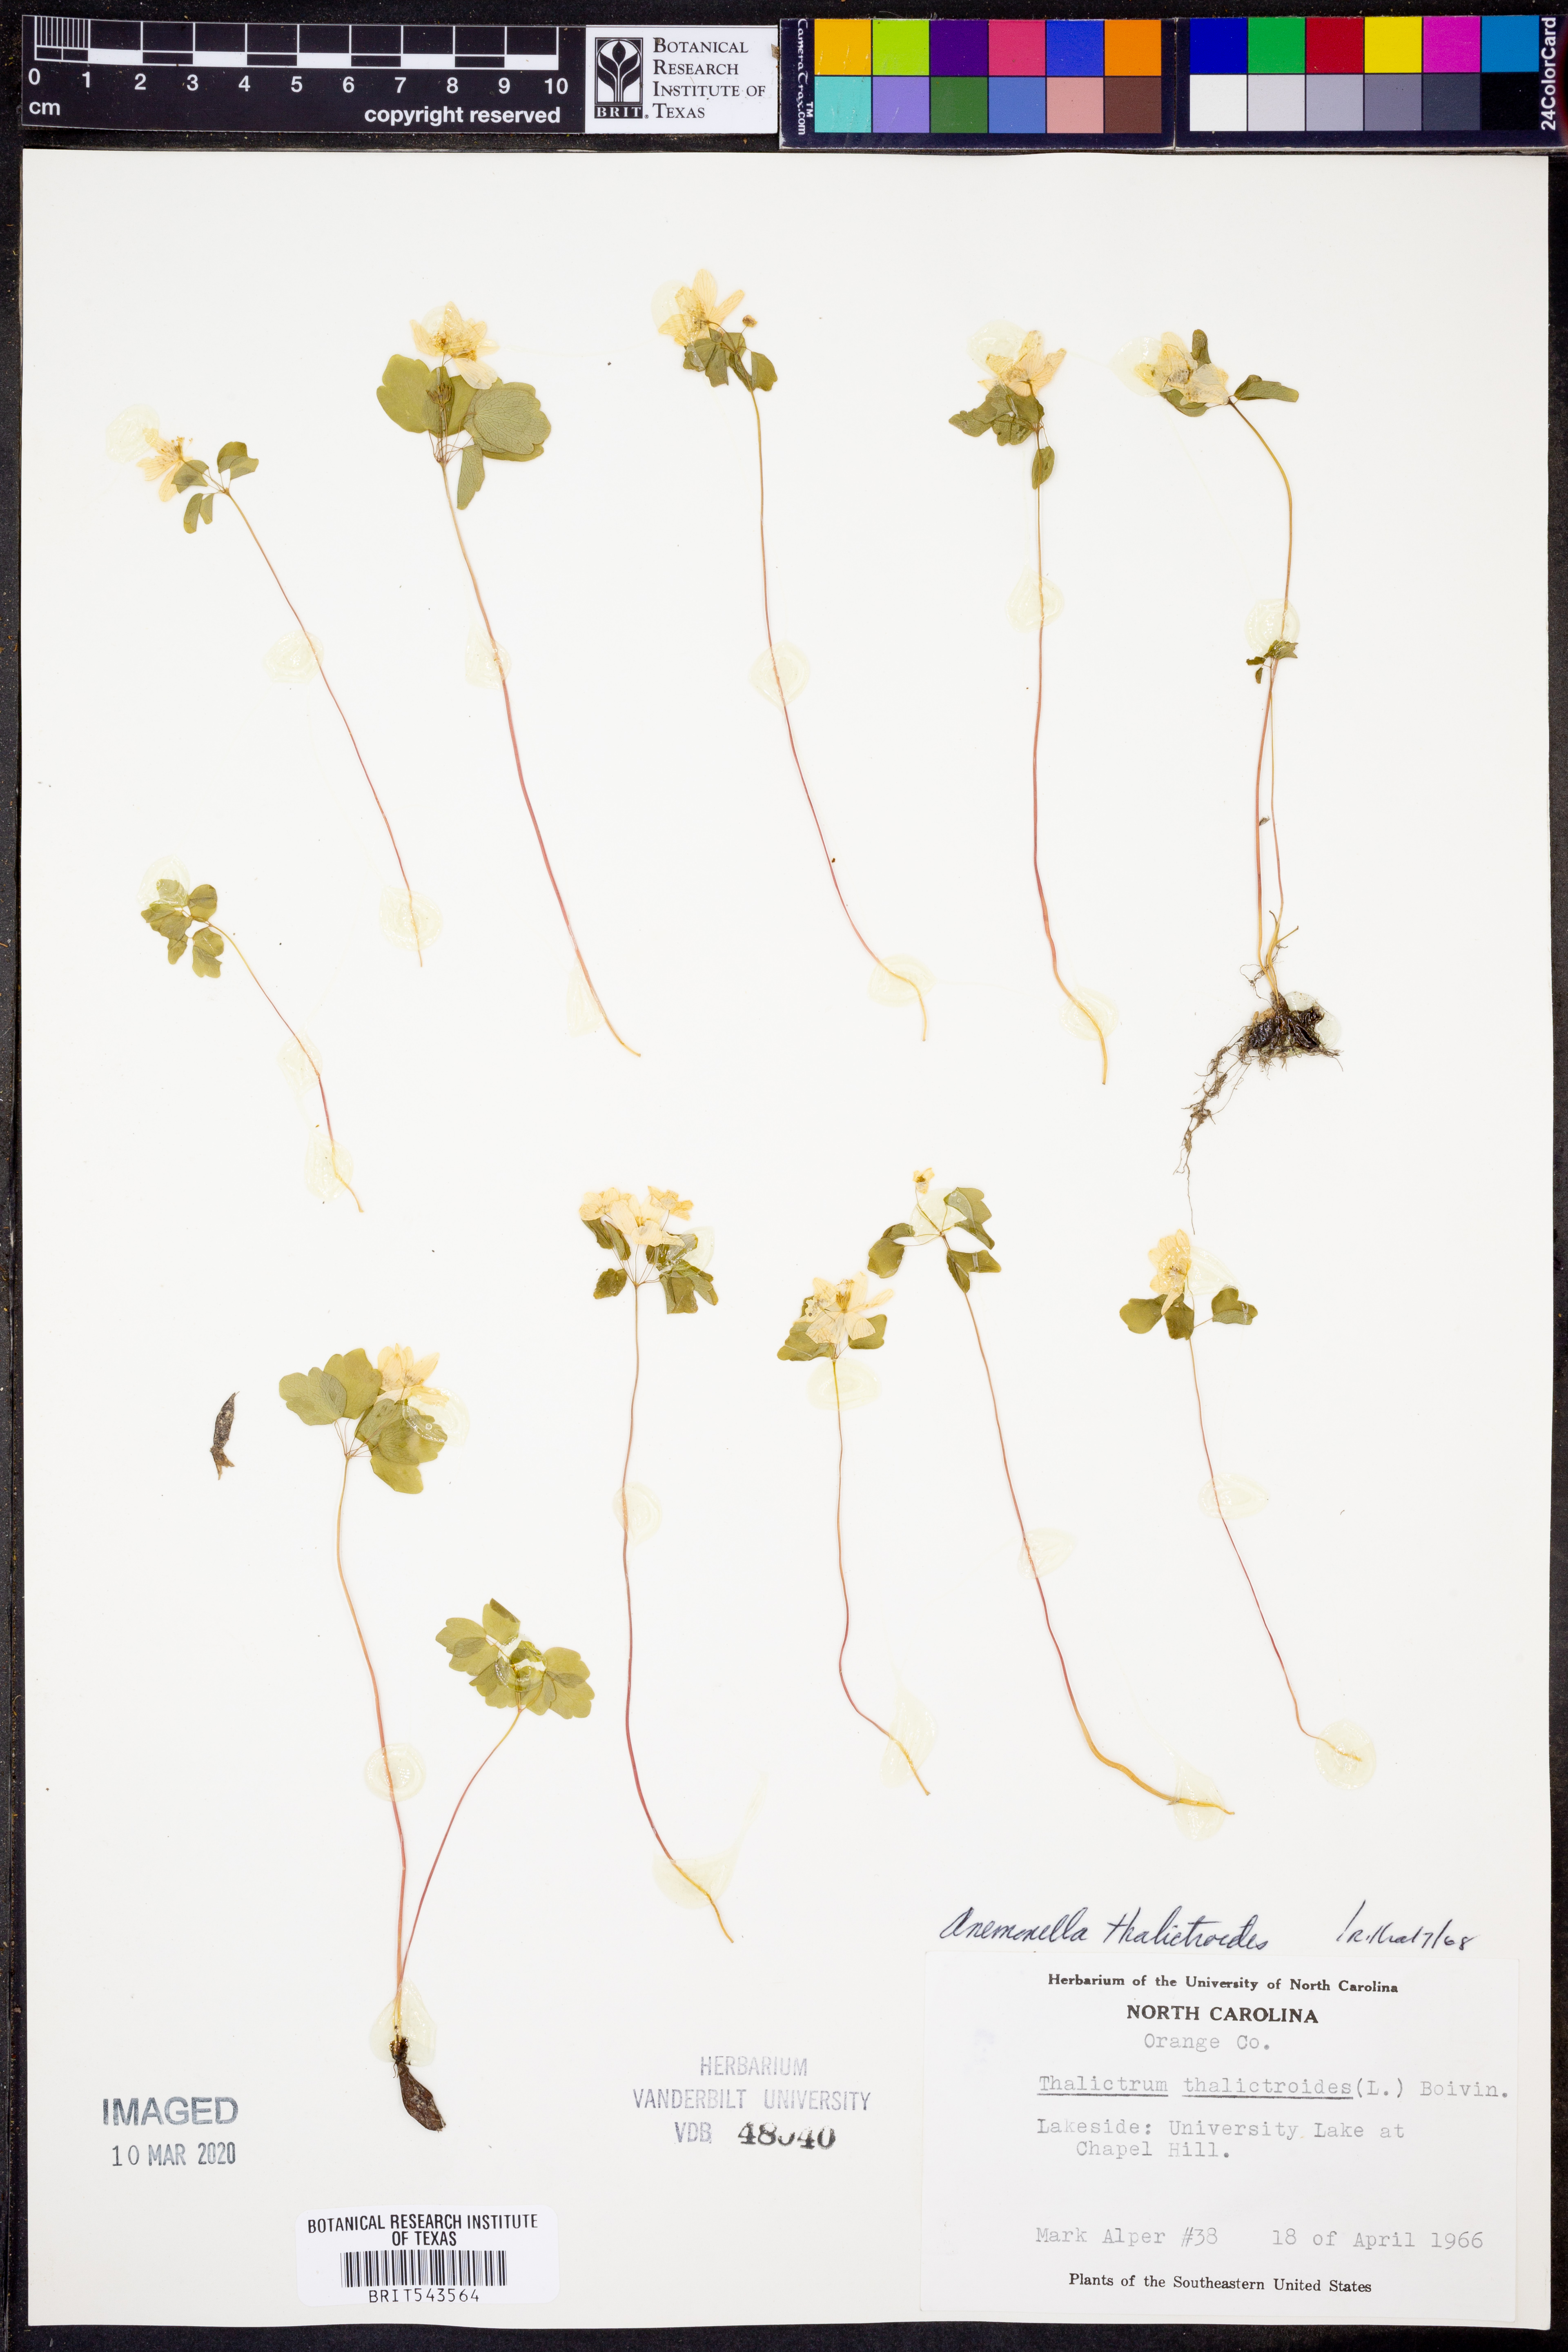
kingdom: Plantae
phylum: Tracheophyta
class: Magnoliopsida
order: Ranunculales
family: Ranunculaceae
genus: Thalictrum
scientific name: Thalictrum thalictroides
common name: Rue-anemone
